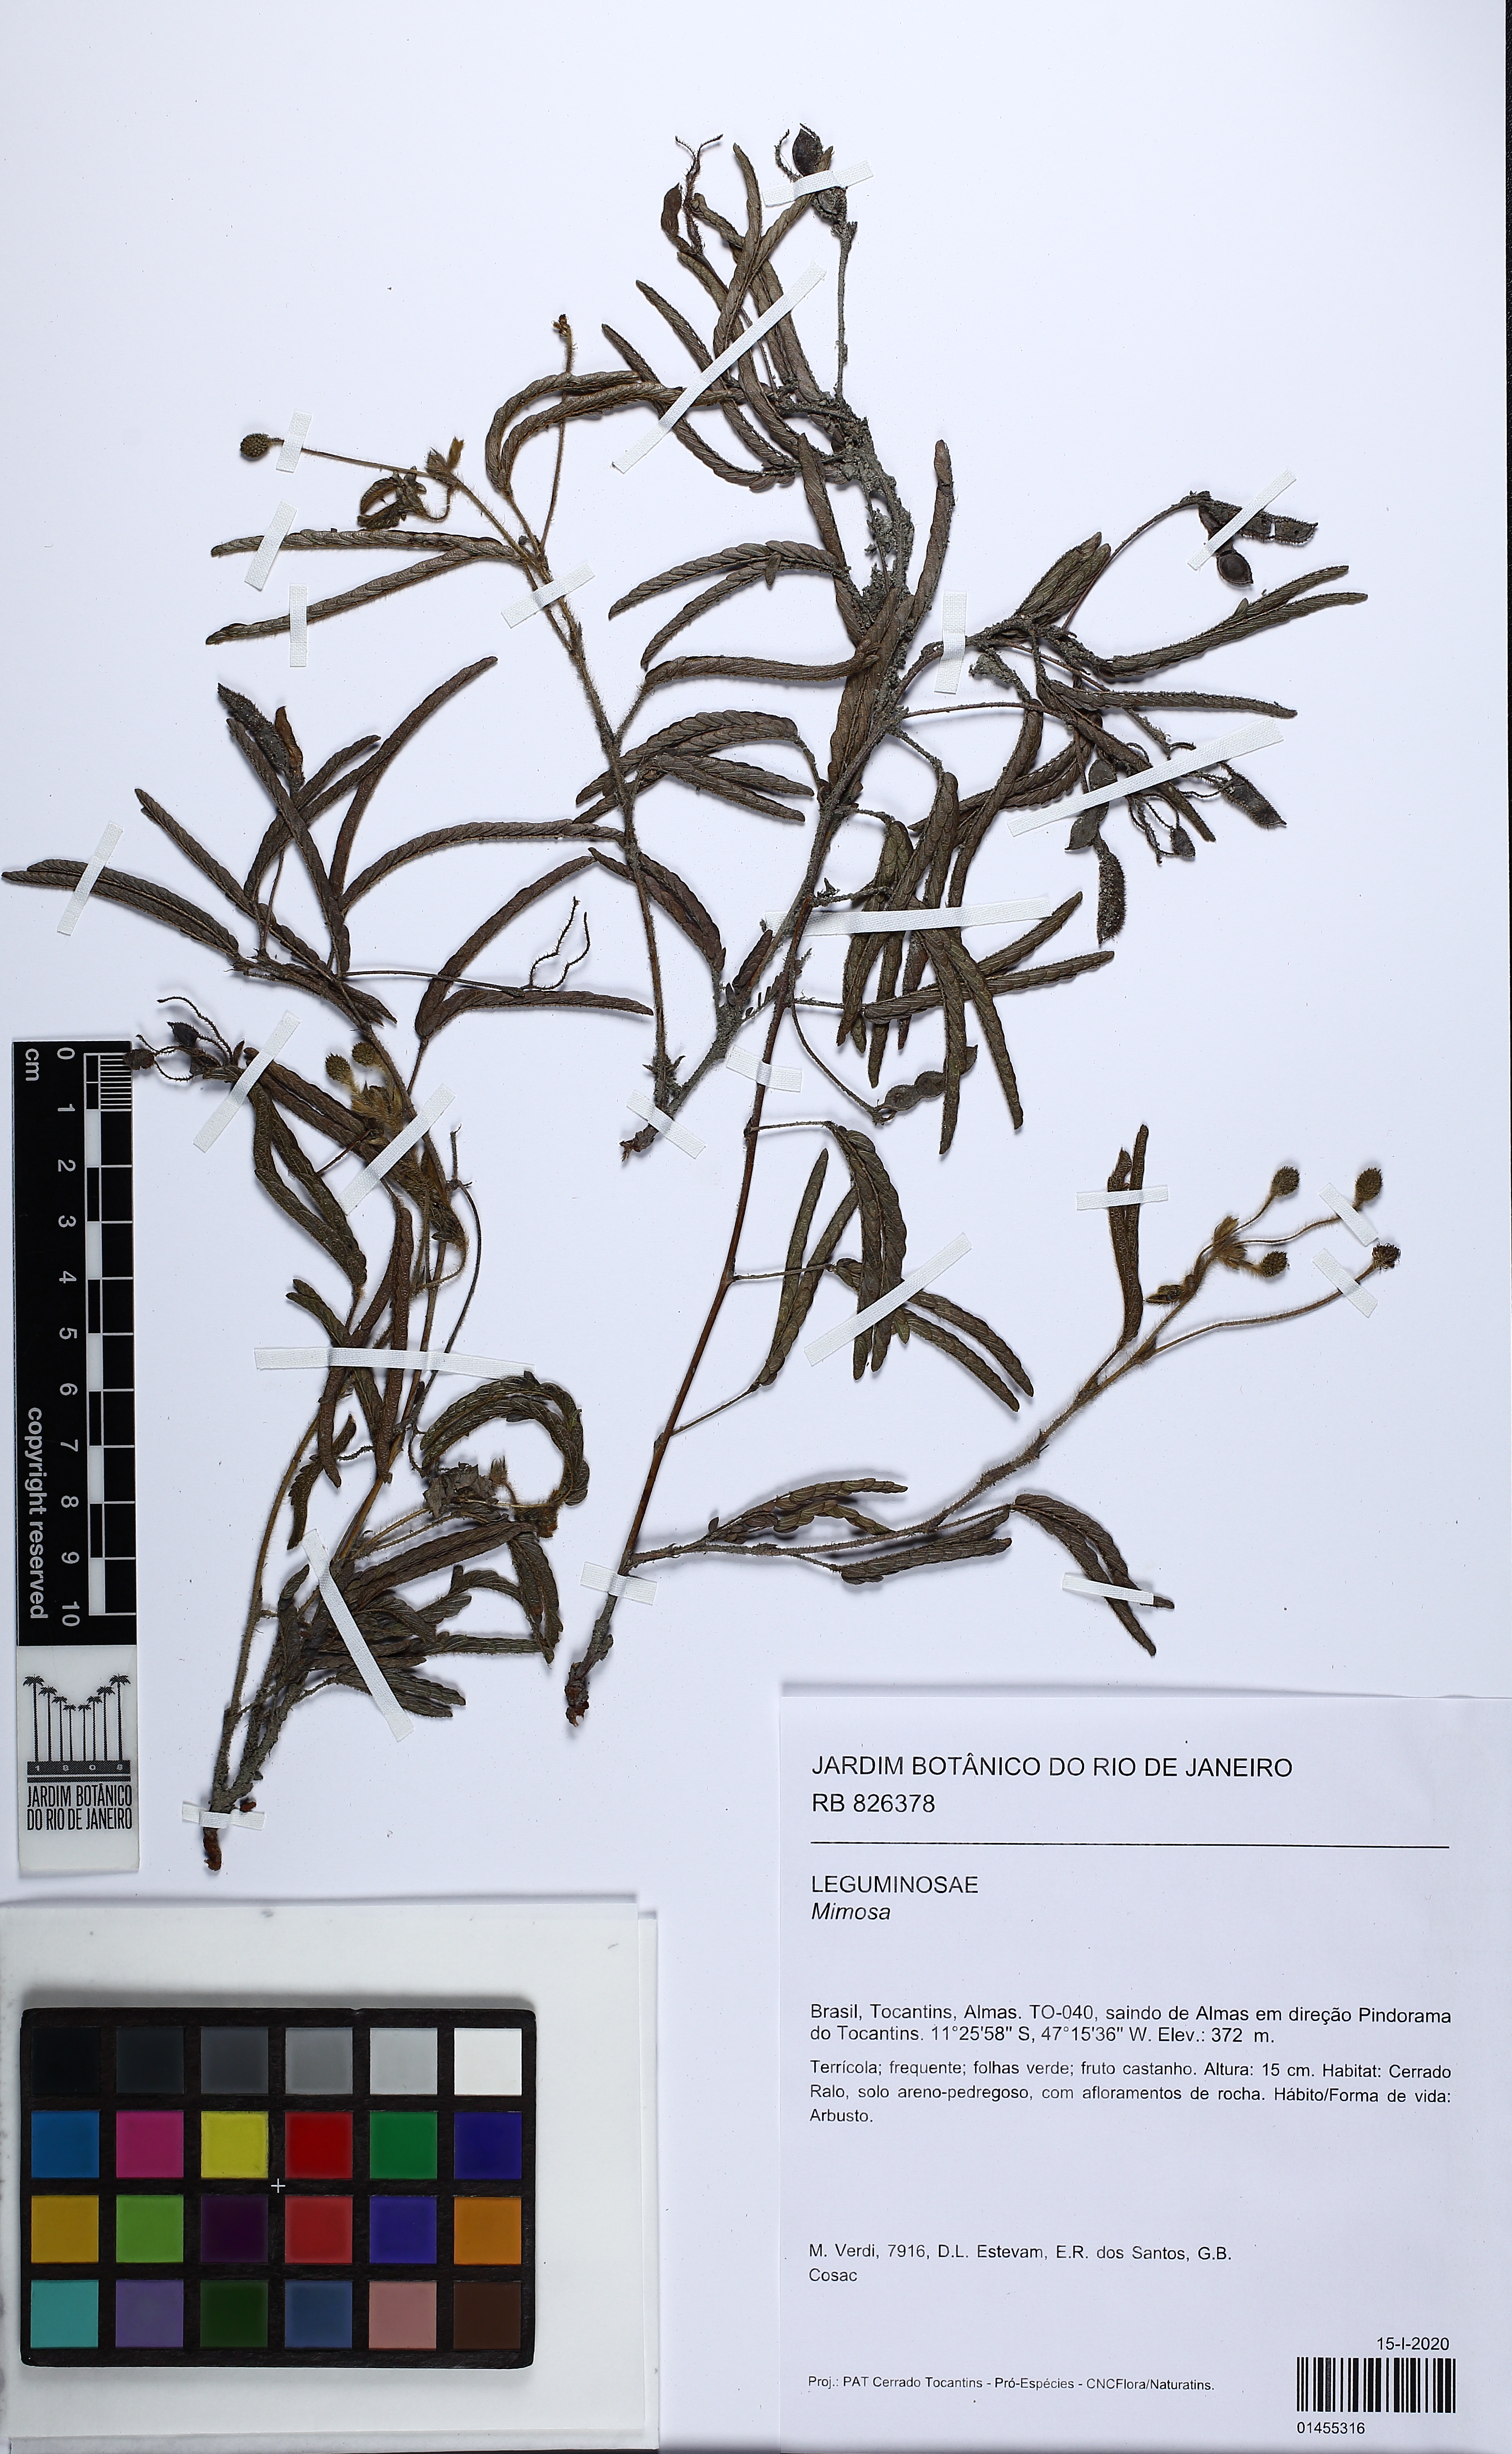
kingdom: Plantae
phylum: Tracheophyta
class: Magnoliopsida
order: Fabales
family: Fabaceae
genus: Mimosa
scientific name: Mimosa
